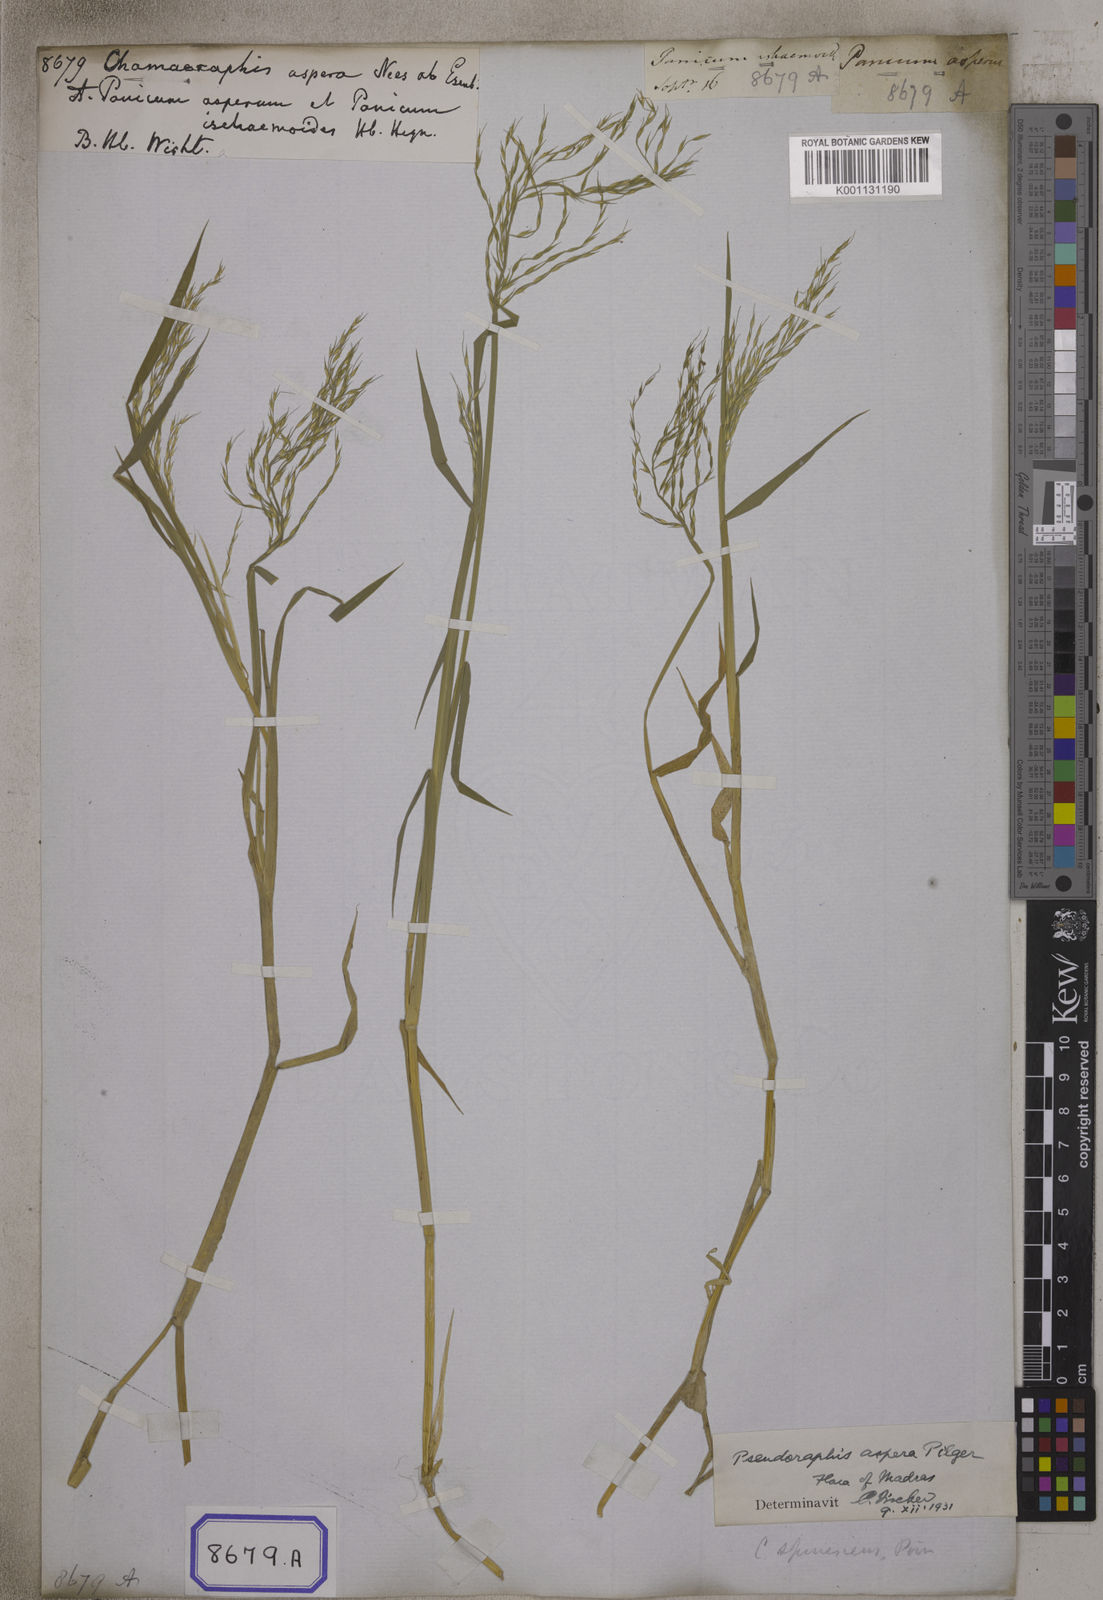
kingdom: Plantae
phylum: Tracheophyta
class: Liliopsida
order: Poales
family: Poaceae
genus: Chamaeraphis
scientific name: Chamaeraphis
